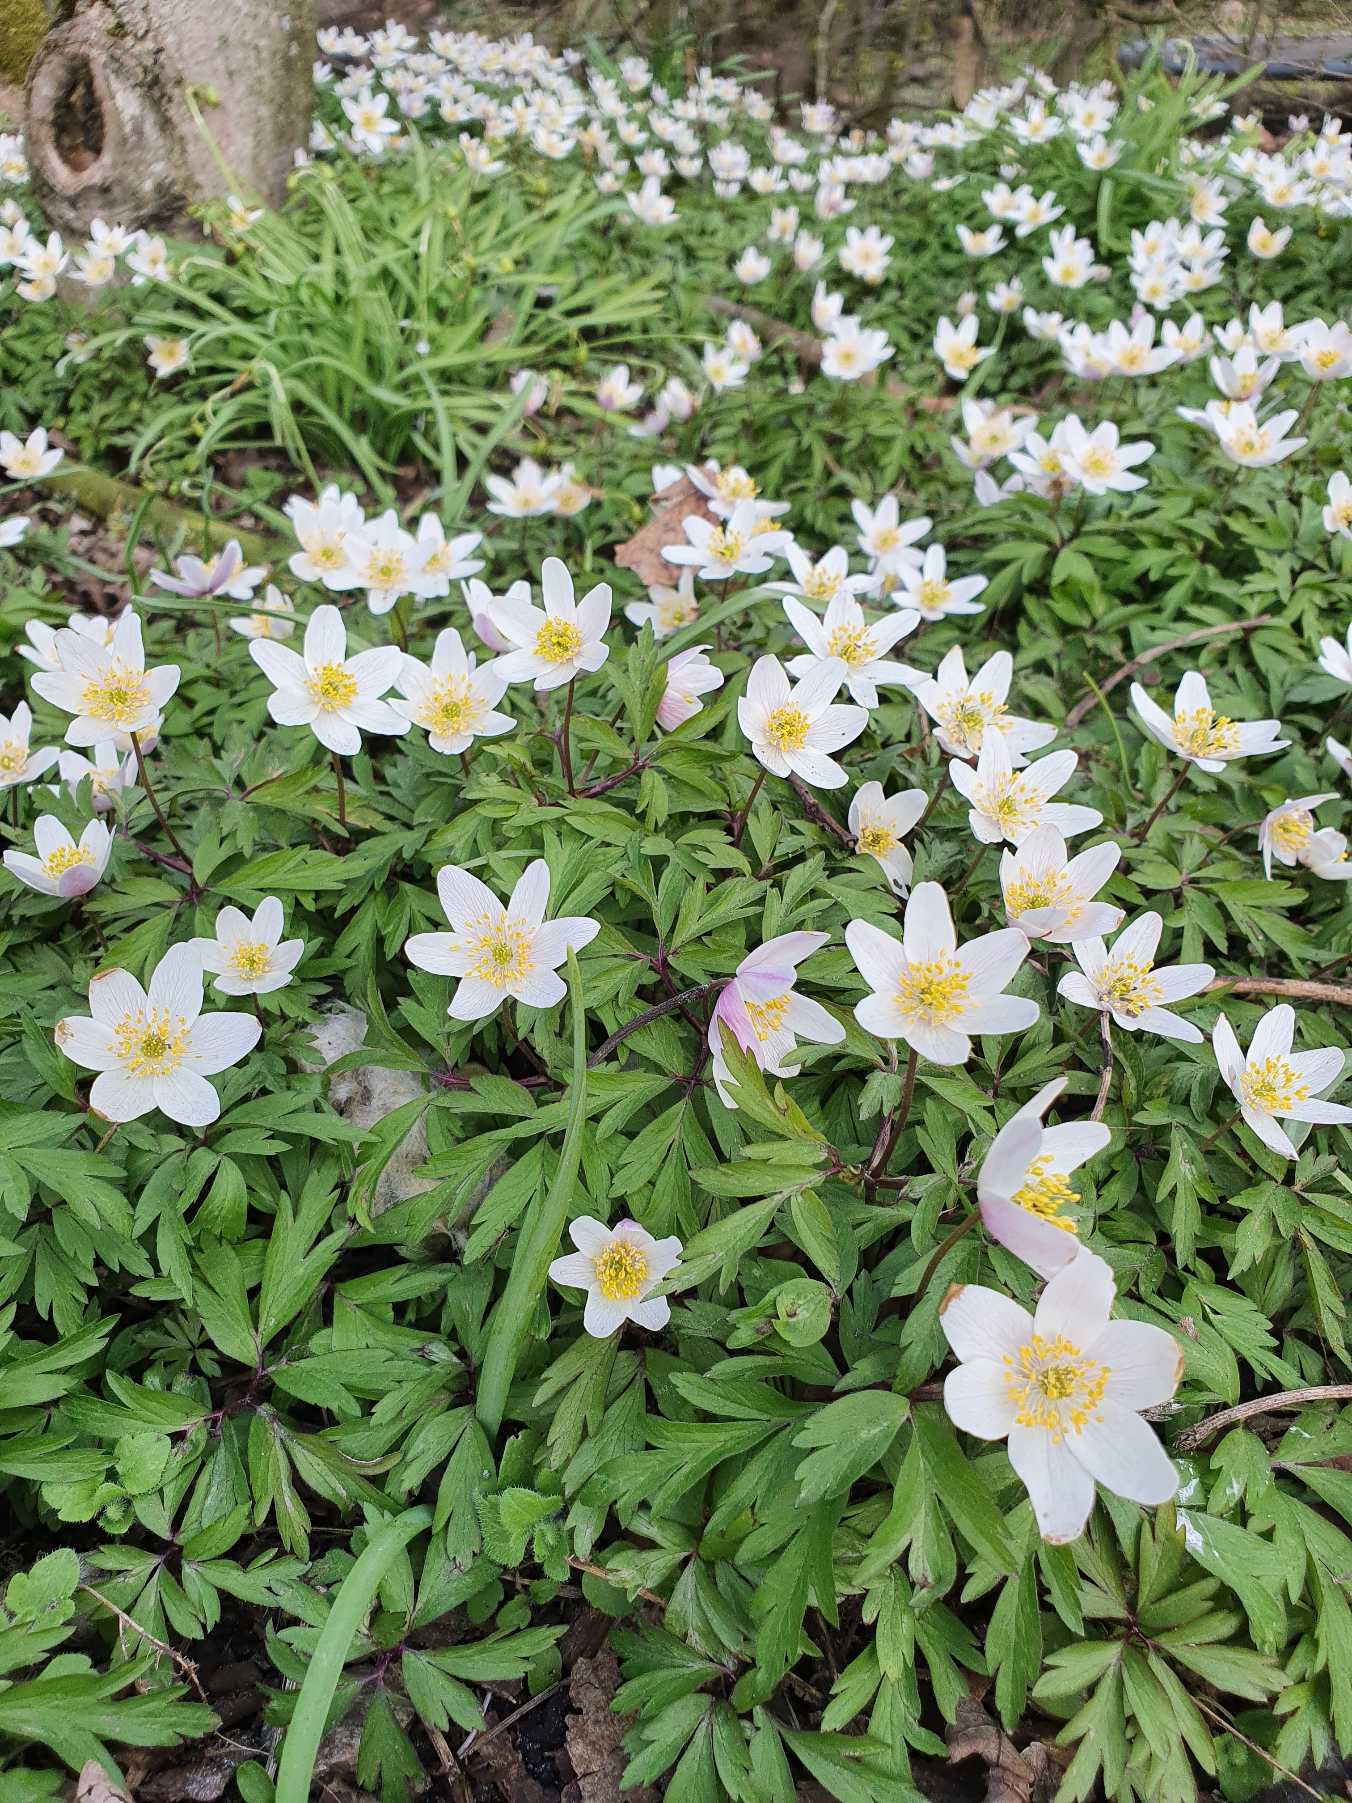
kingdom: Plantae
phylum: Tracheophyta
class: Magnoliopsida
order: Ranunculales
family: Ranunculaceae
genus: Anemone
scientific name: Anemone nemorosa
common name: Hvid anemone
